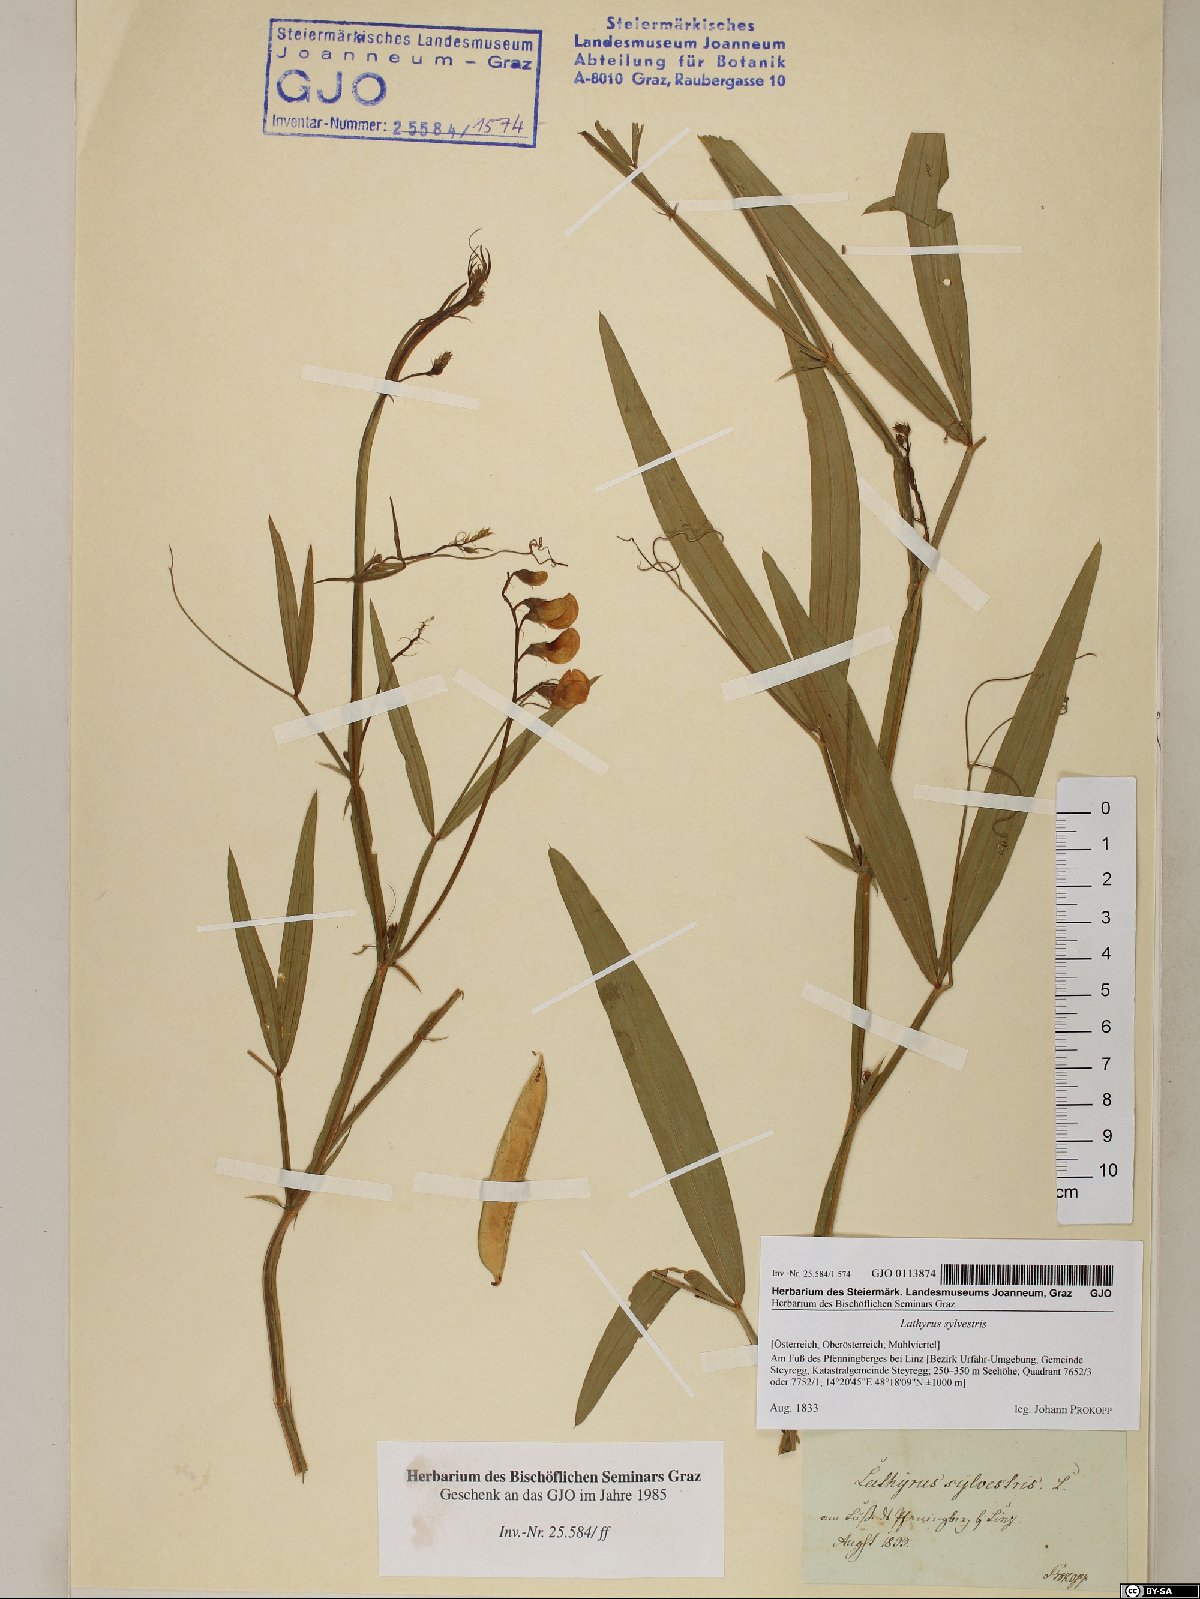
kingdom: Plantae
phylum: Tracheophyta
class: Magnoliopsida
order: Fabales
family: Fabaceae
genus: Lathyrus
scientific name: Lathyrus sylvestris
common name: Flat pea
